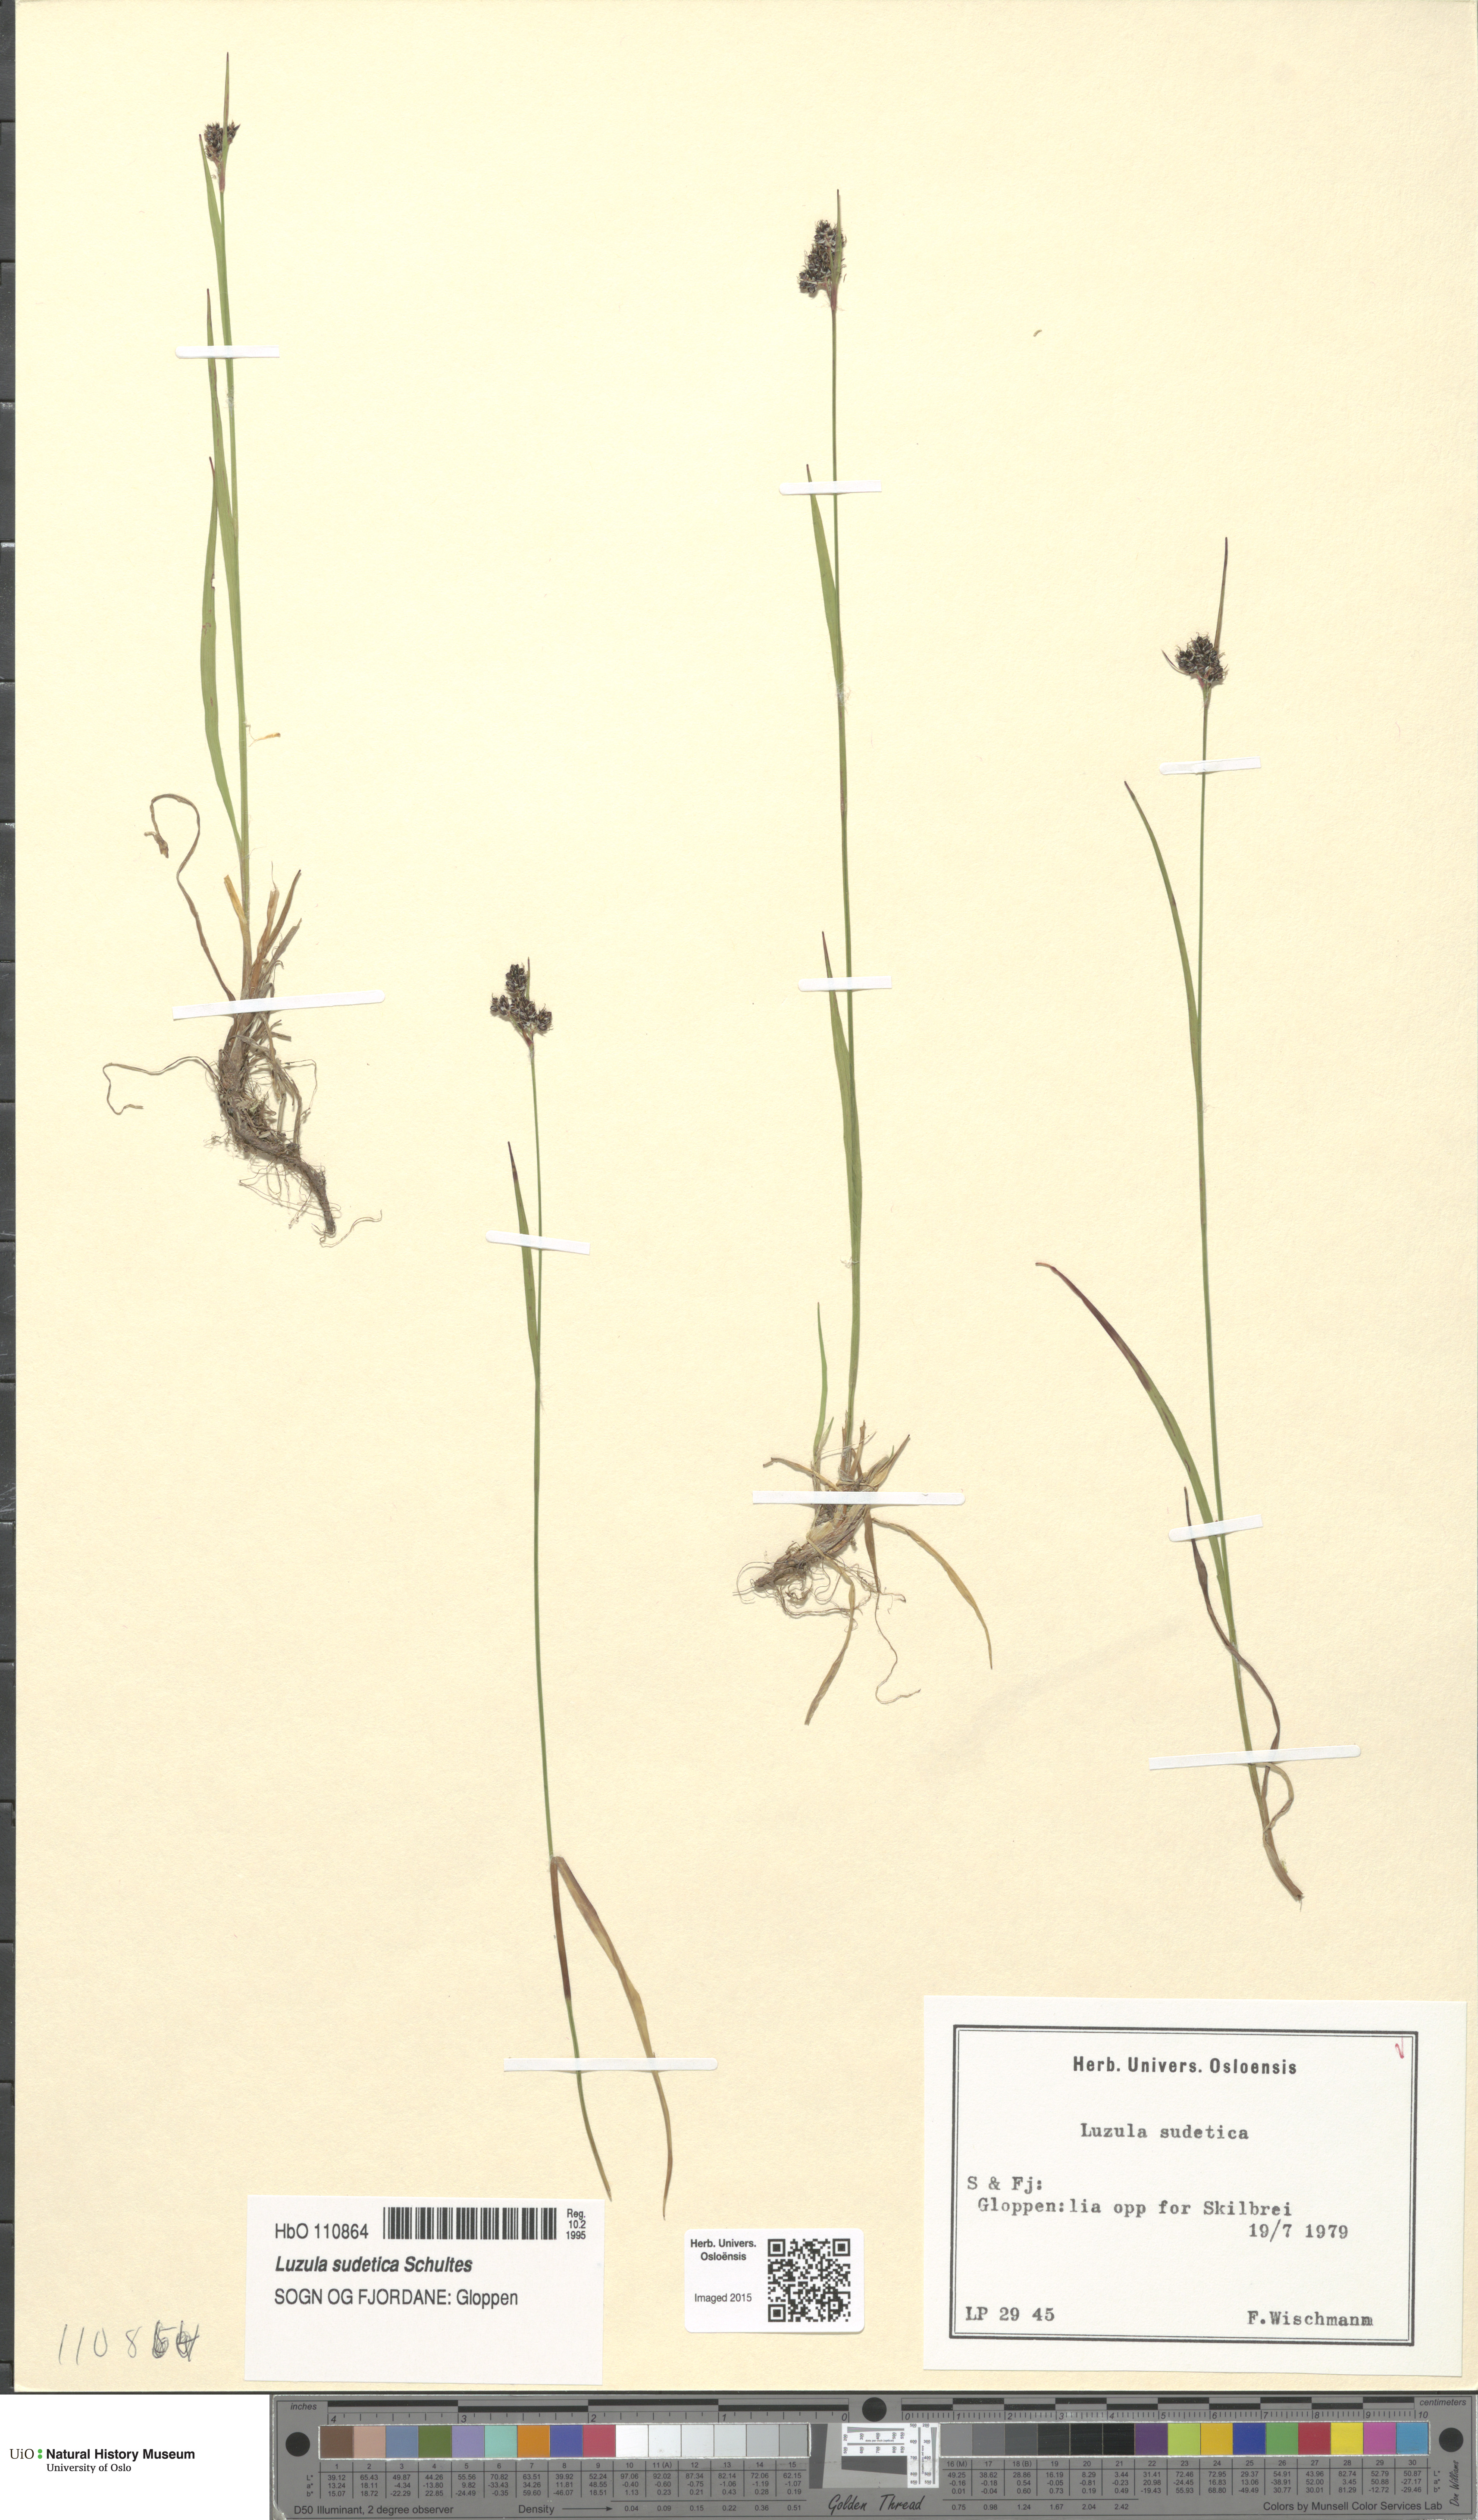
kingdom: Plantae
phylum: Tracheophyta
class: Liliopsida
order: Poales
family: Juncaceae
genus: Luzula
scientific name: Luzula sudetica
